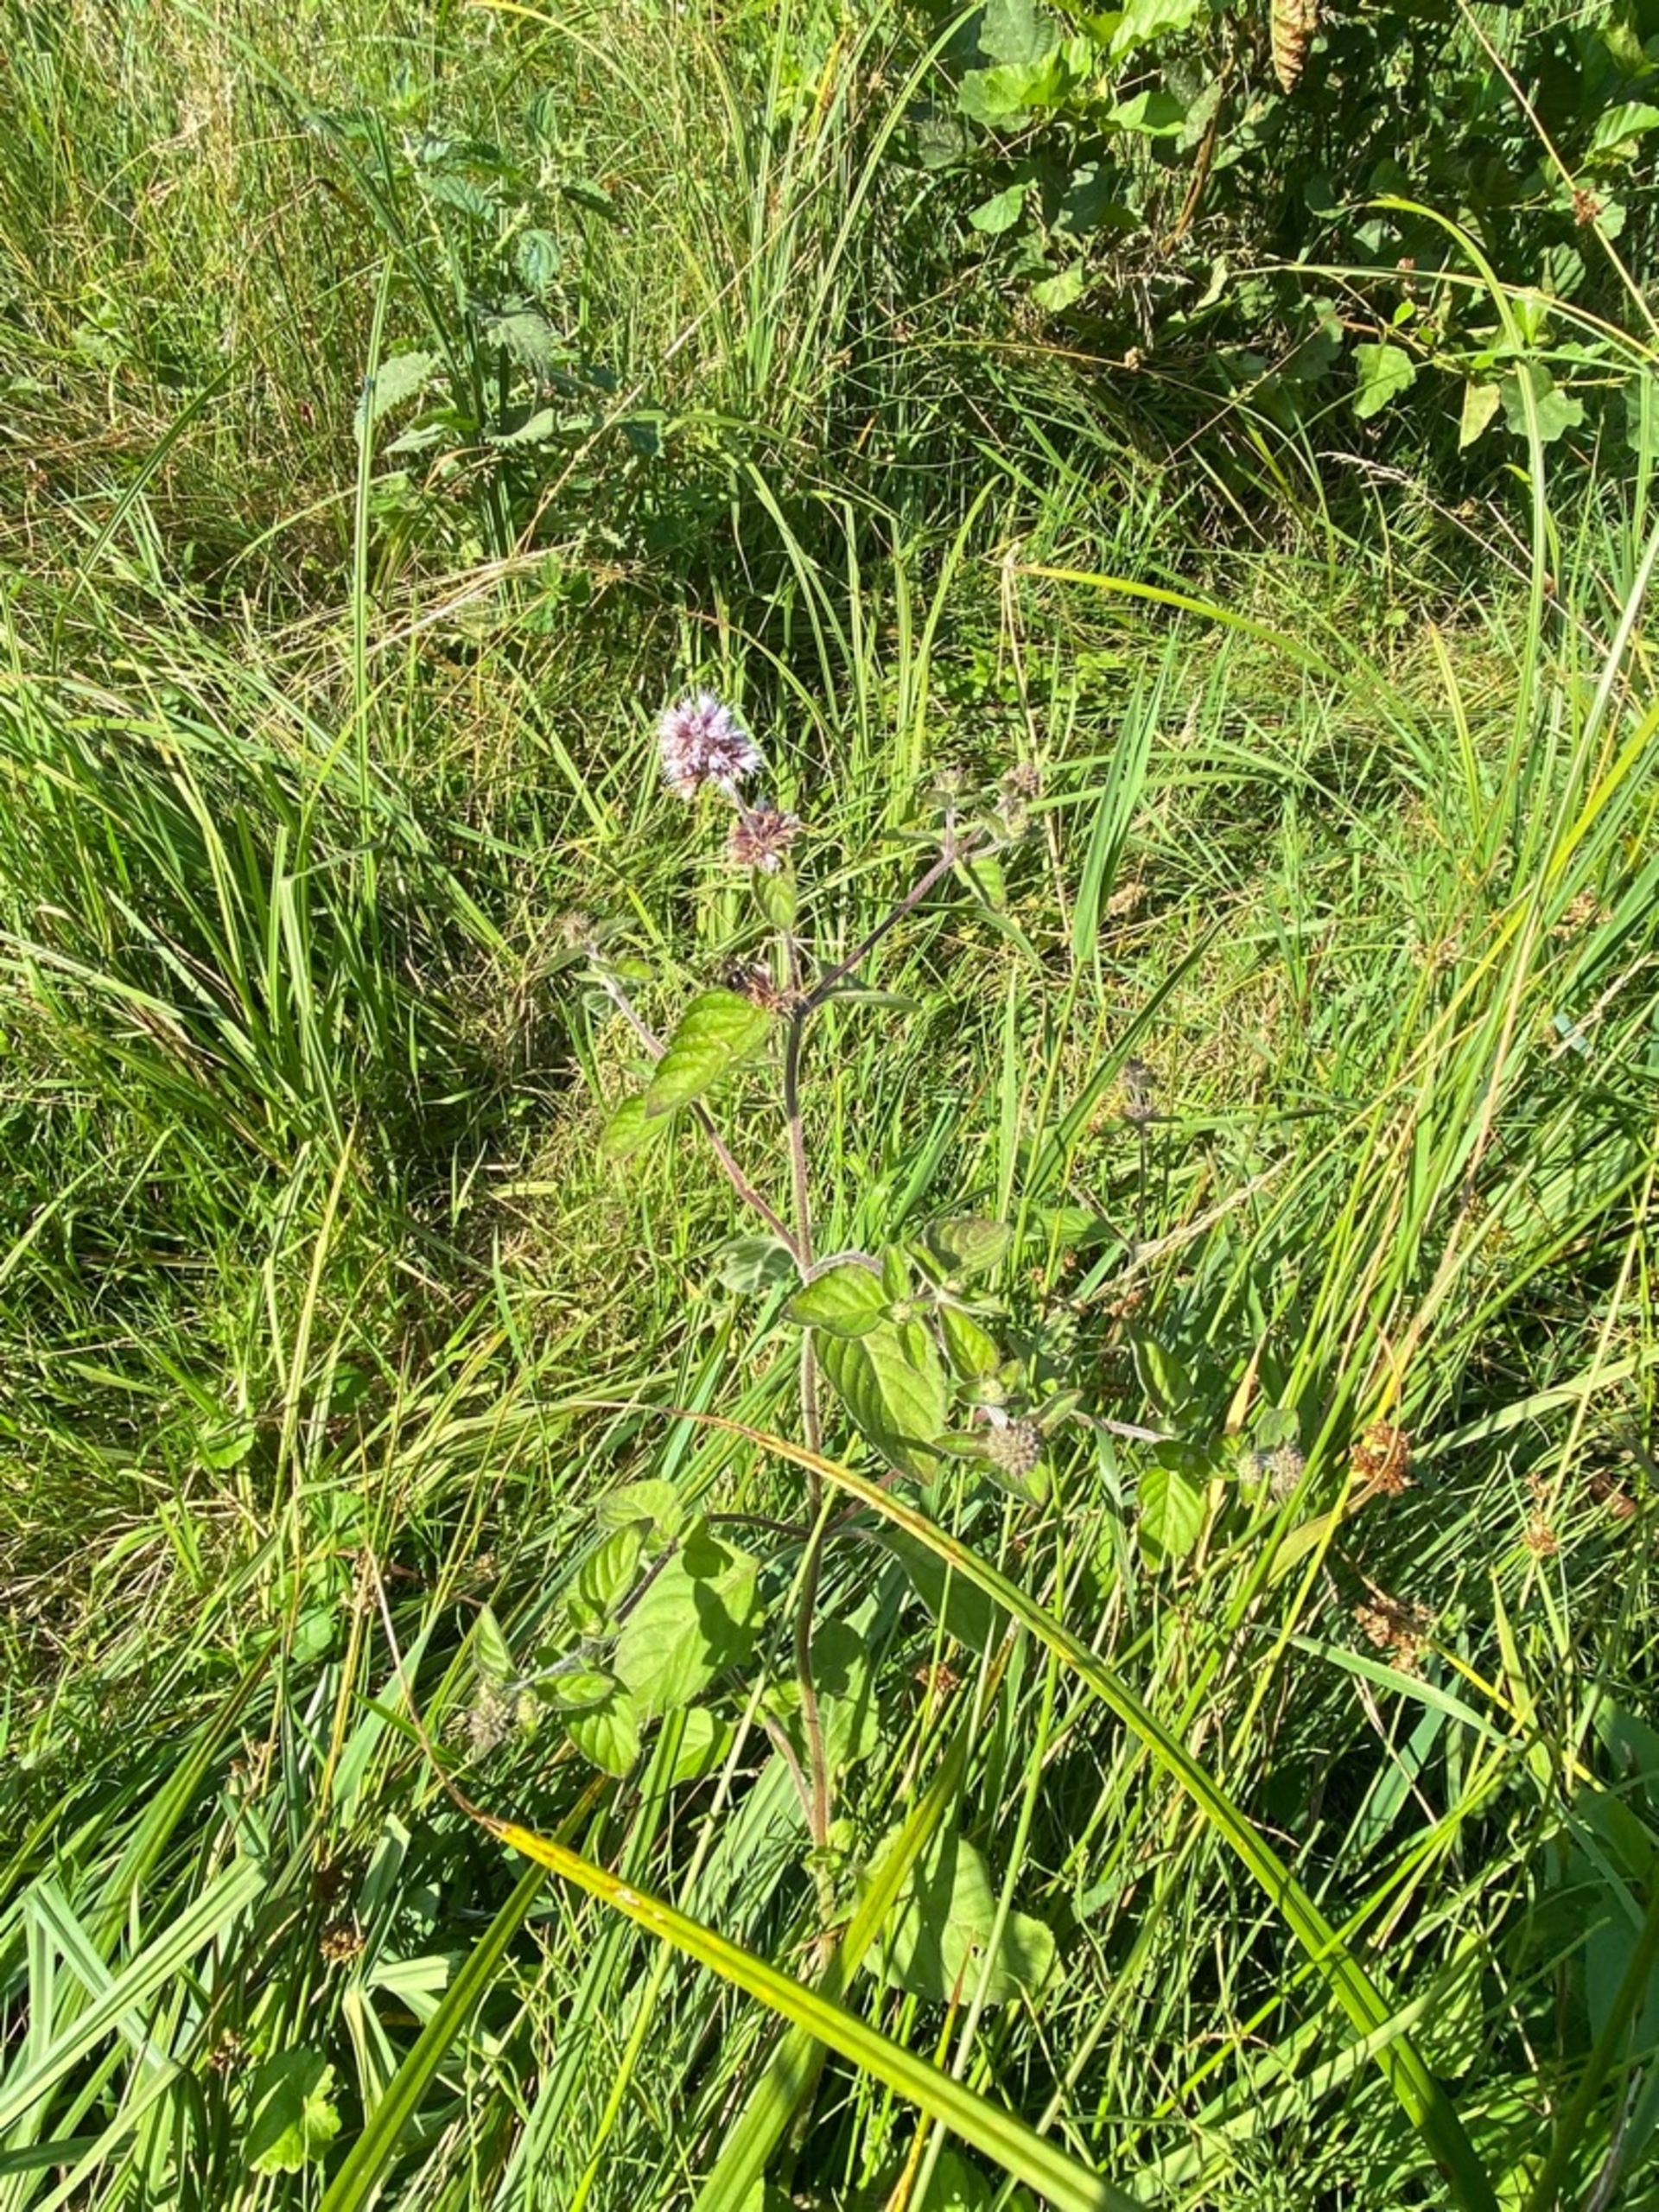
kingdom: Plantae
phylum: Tracheophyta
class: Magnoliopsida
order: Lamiales
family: Lamiaceae
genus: Mentha
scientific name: Mentha aquatica
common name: Vand-mynte
